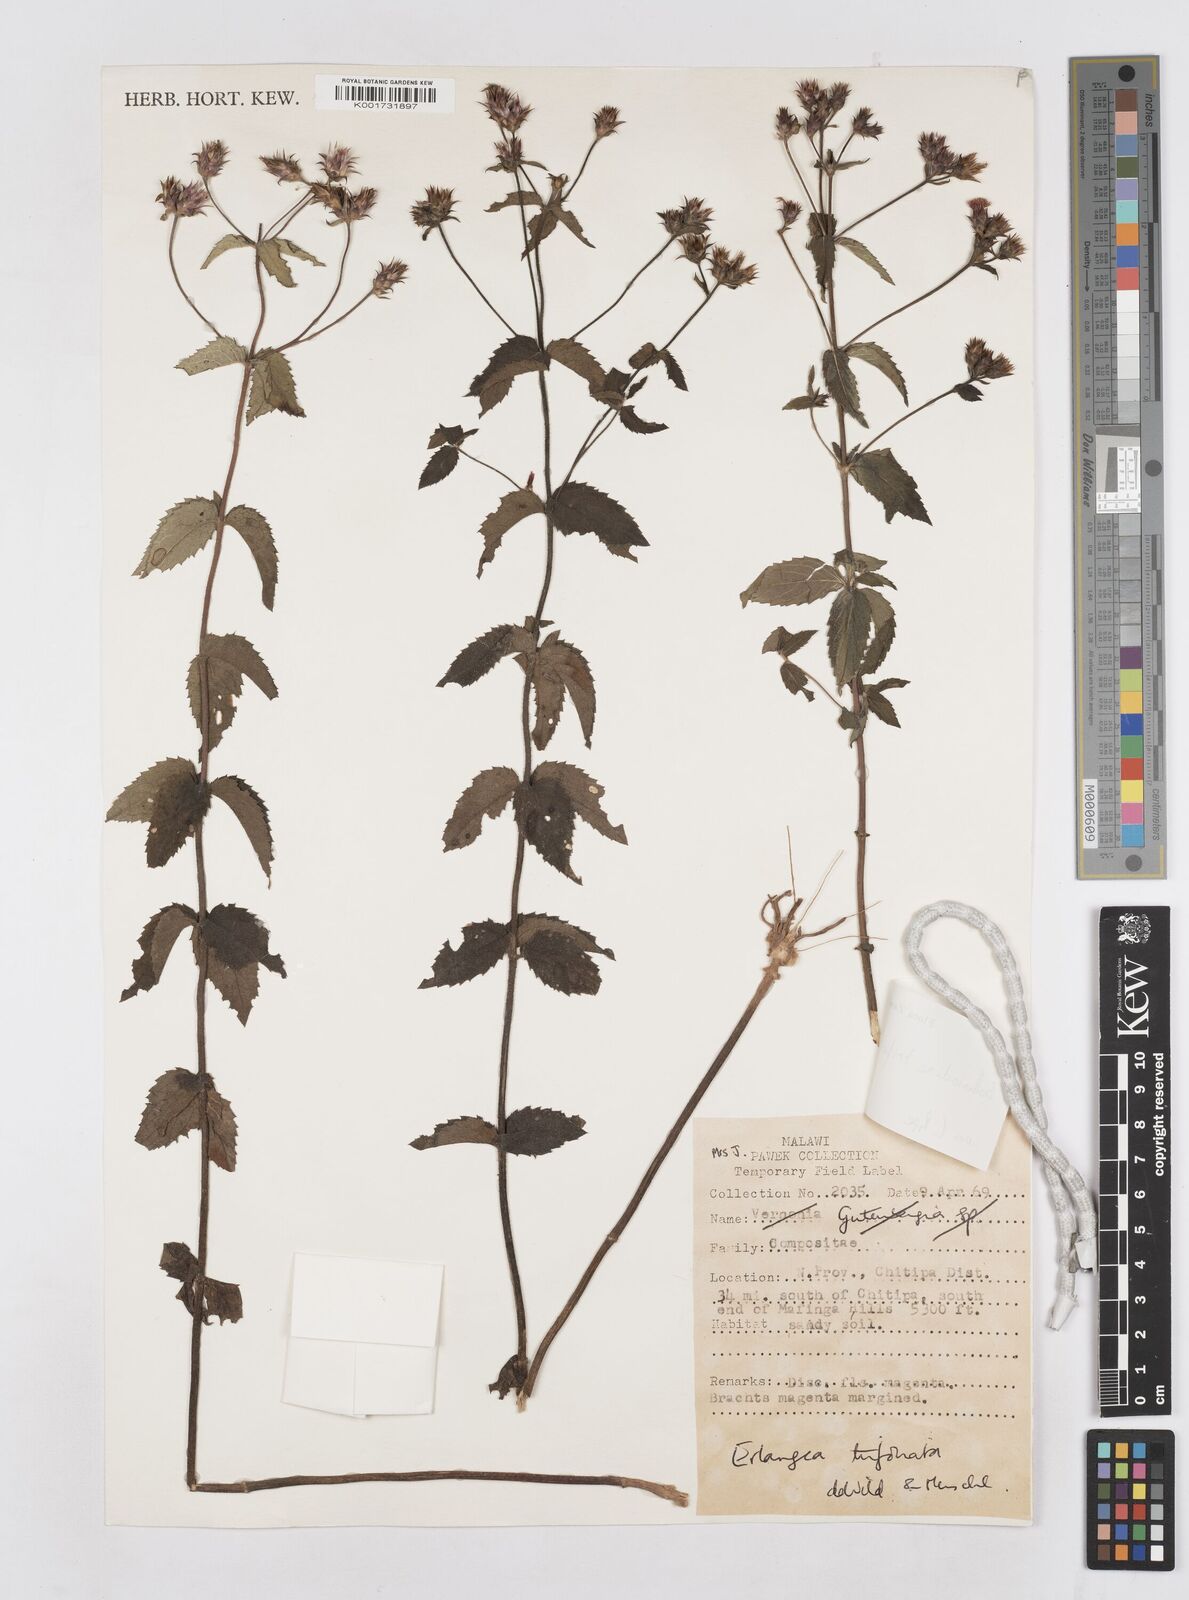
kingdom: Plantae
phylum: Tracheophyta
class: Magnoliopsida
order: Asterales
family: Asteraceae
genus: Bothriocline
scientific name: Bothriocline trifoliata
